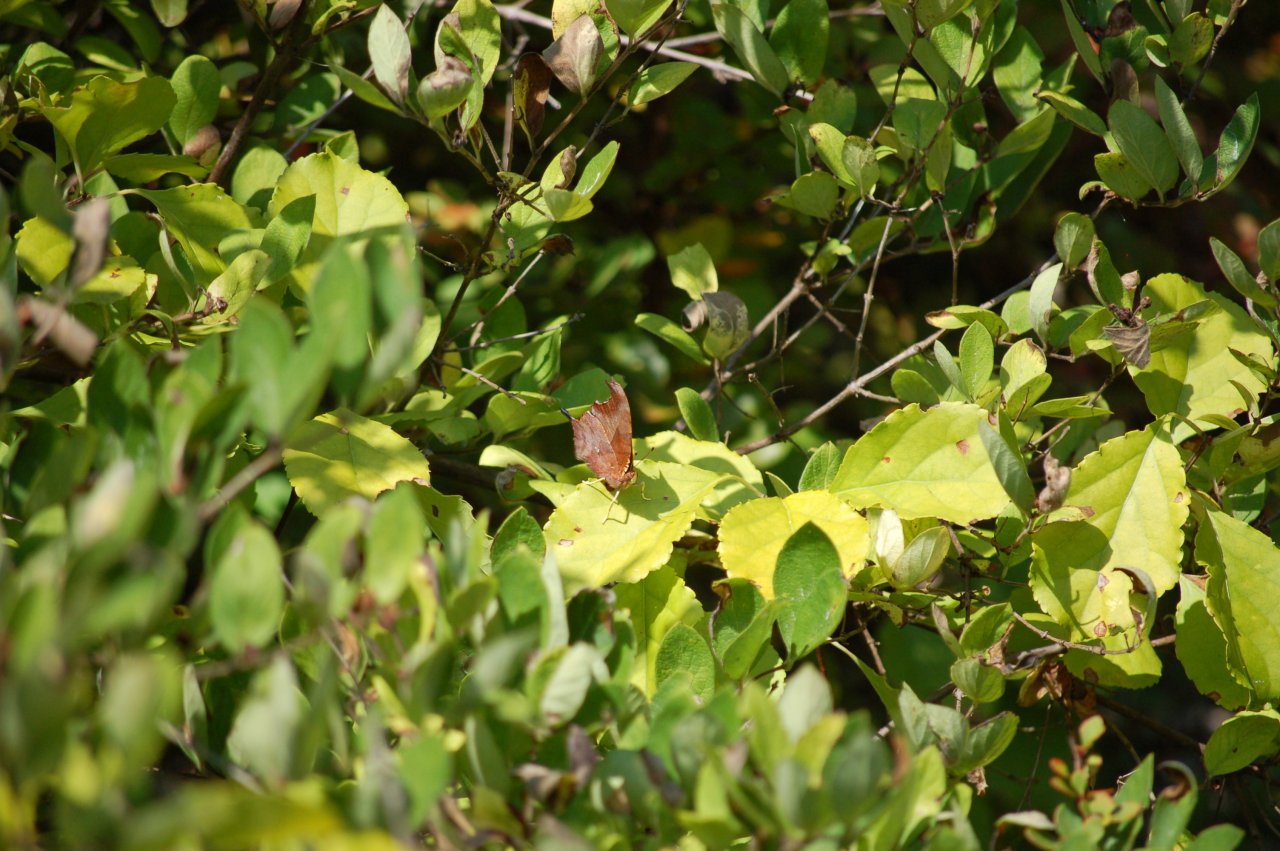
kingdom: Animalia
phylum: Arthropoda
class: Insecta
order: Lepidoptera
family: Nymphalidae
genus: Polygonia
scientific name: Polygonia interrogationis
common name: Question Mark
